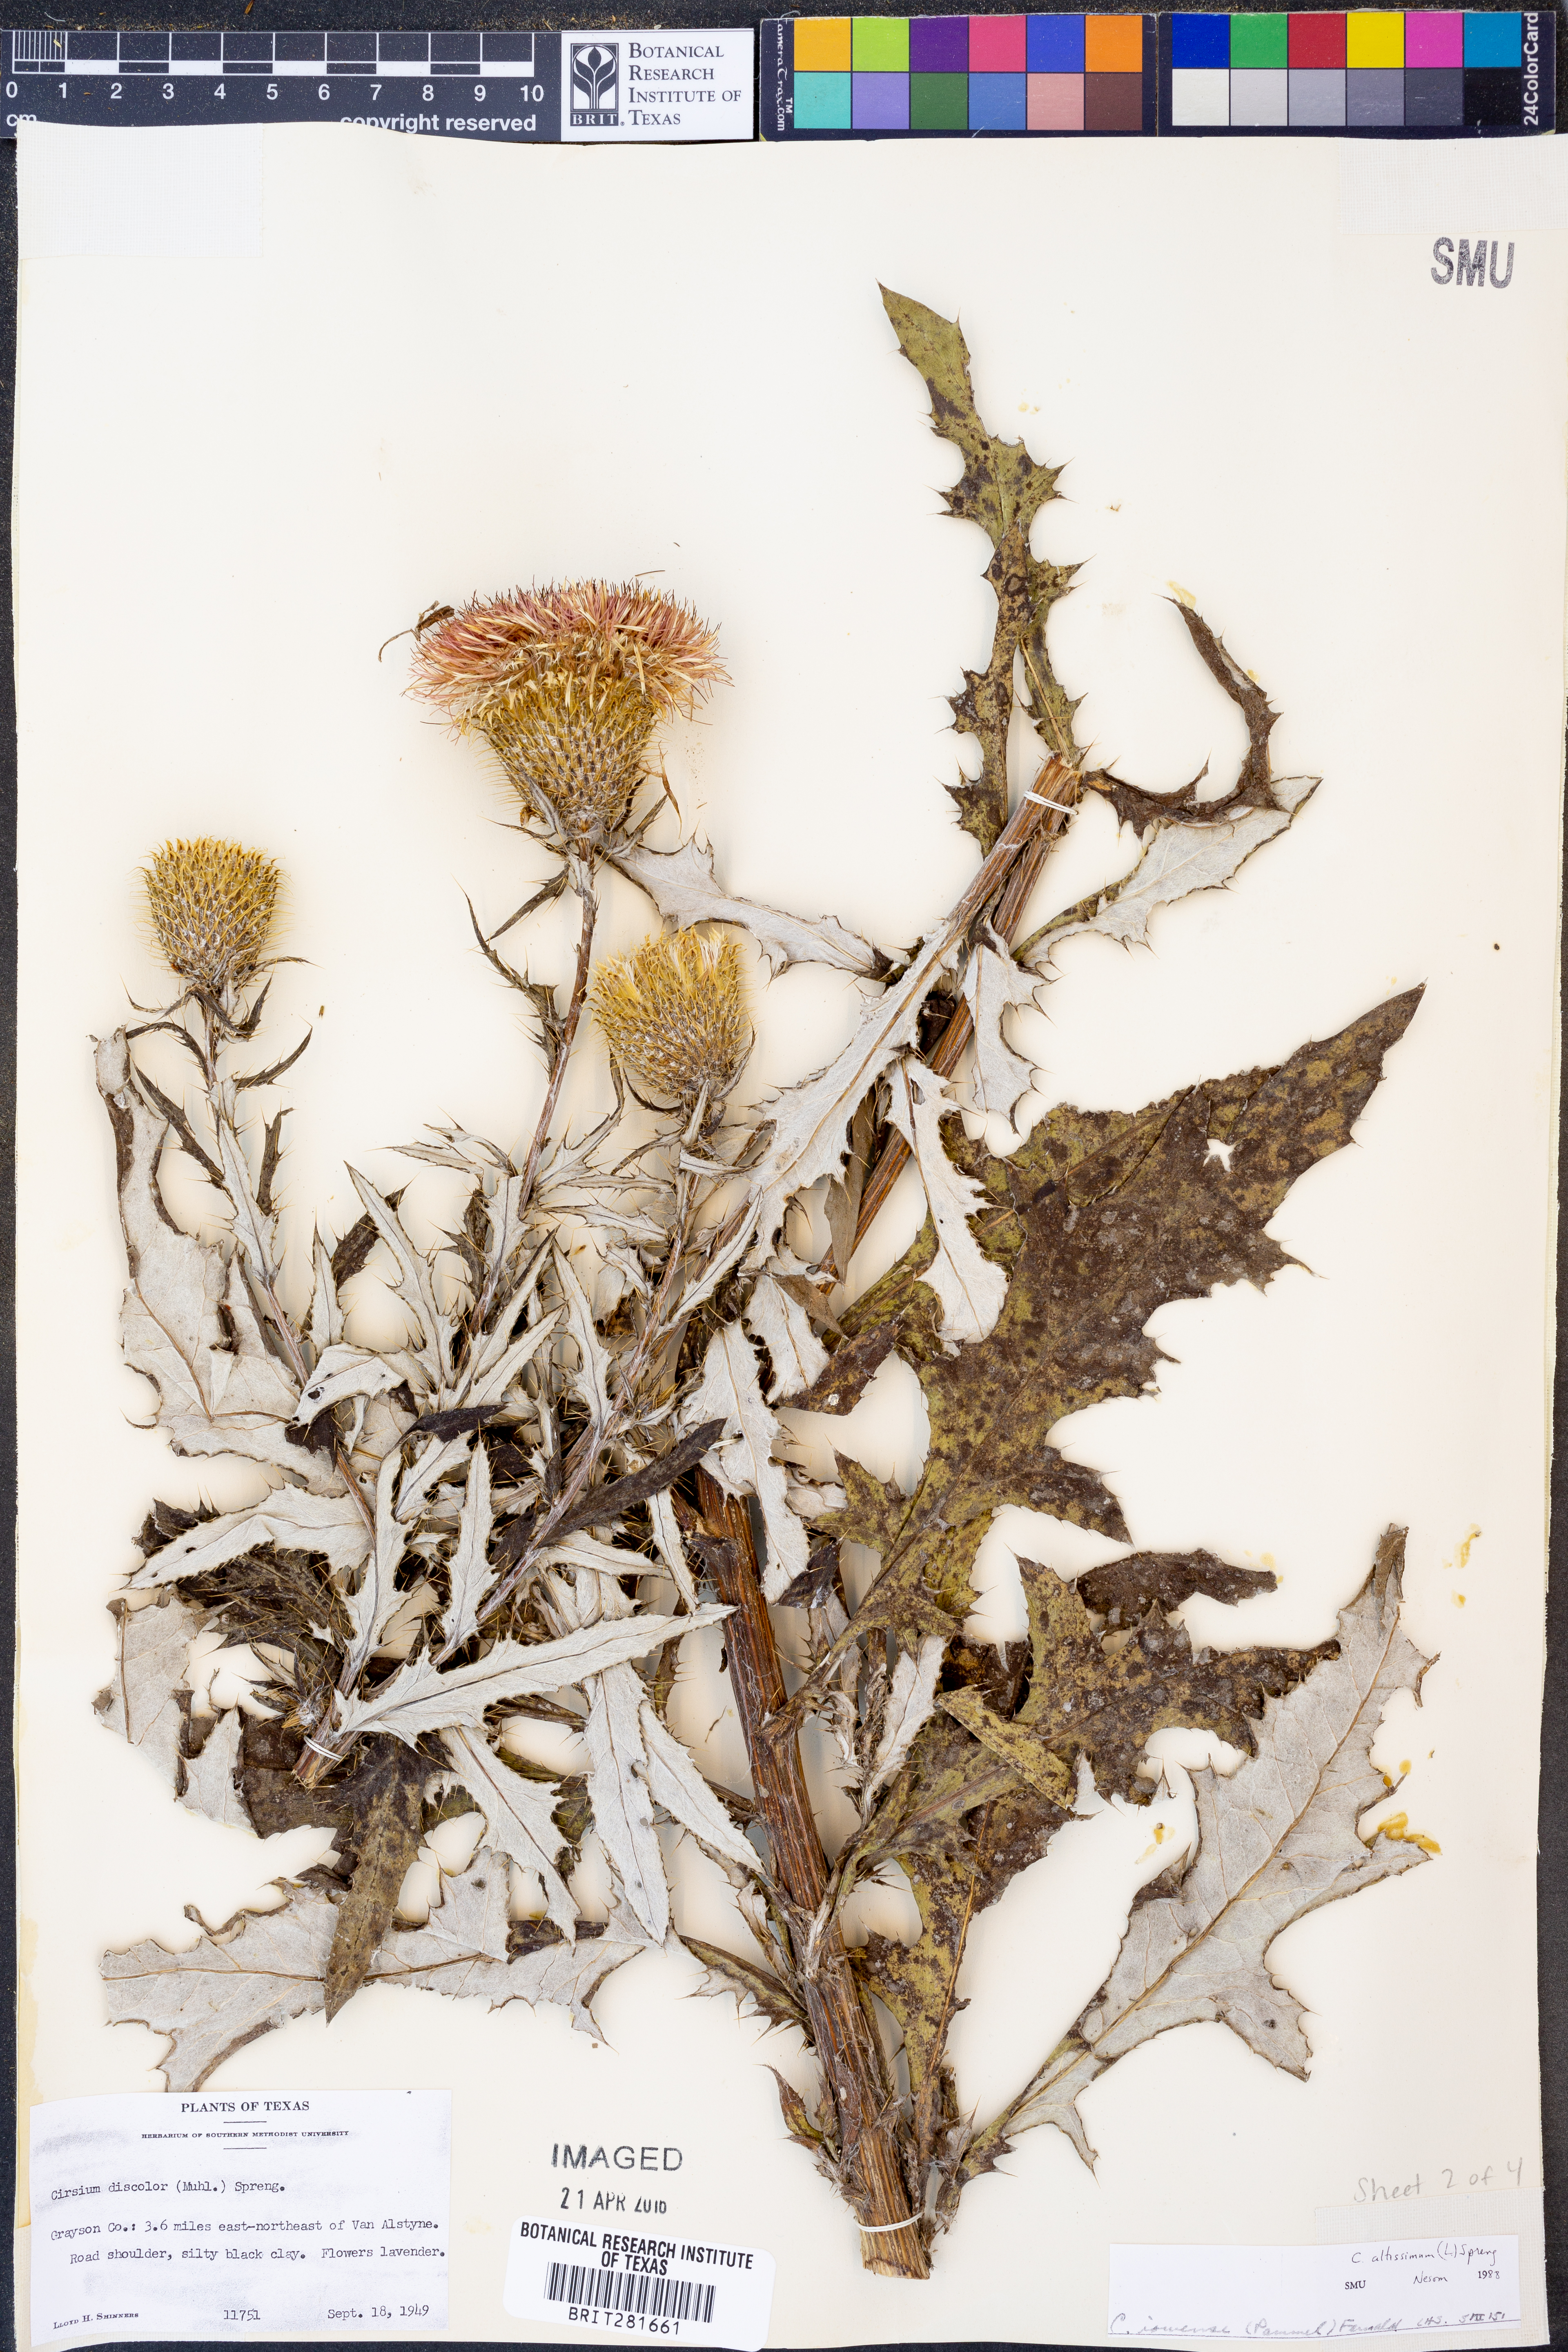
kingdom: Plantae
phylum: Tracheophyta
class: Magnoliopsida
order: Asterales
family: Asteraceae
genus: Cirsium
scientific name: Cirsium altissimum
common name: Roadside thistle
